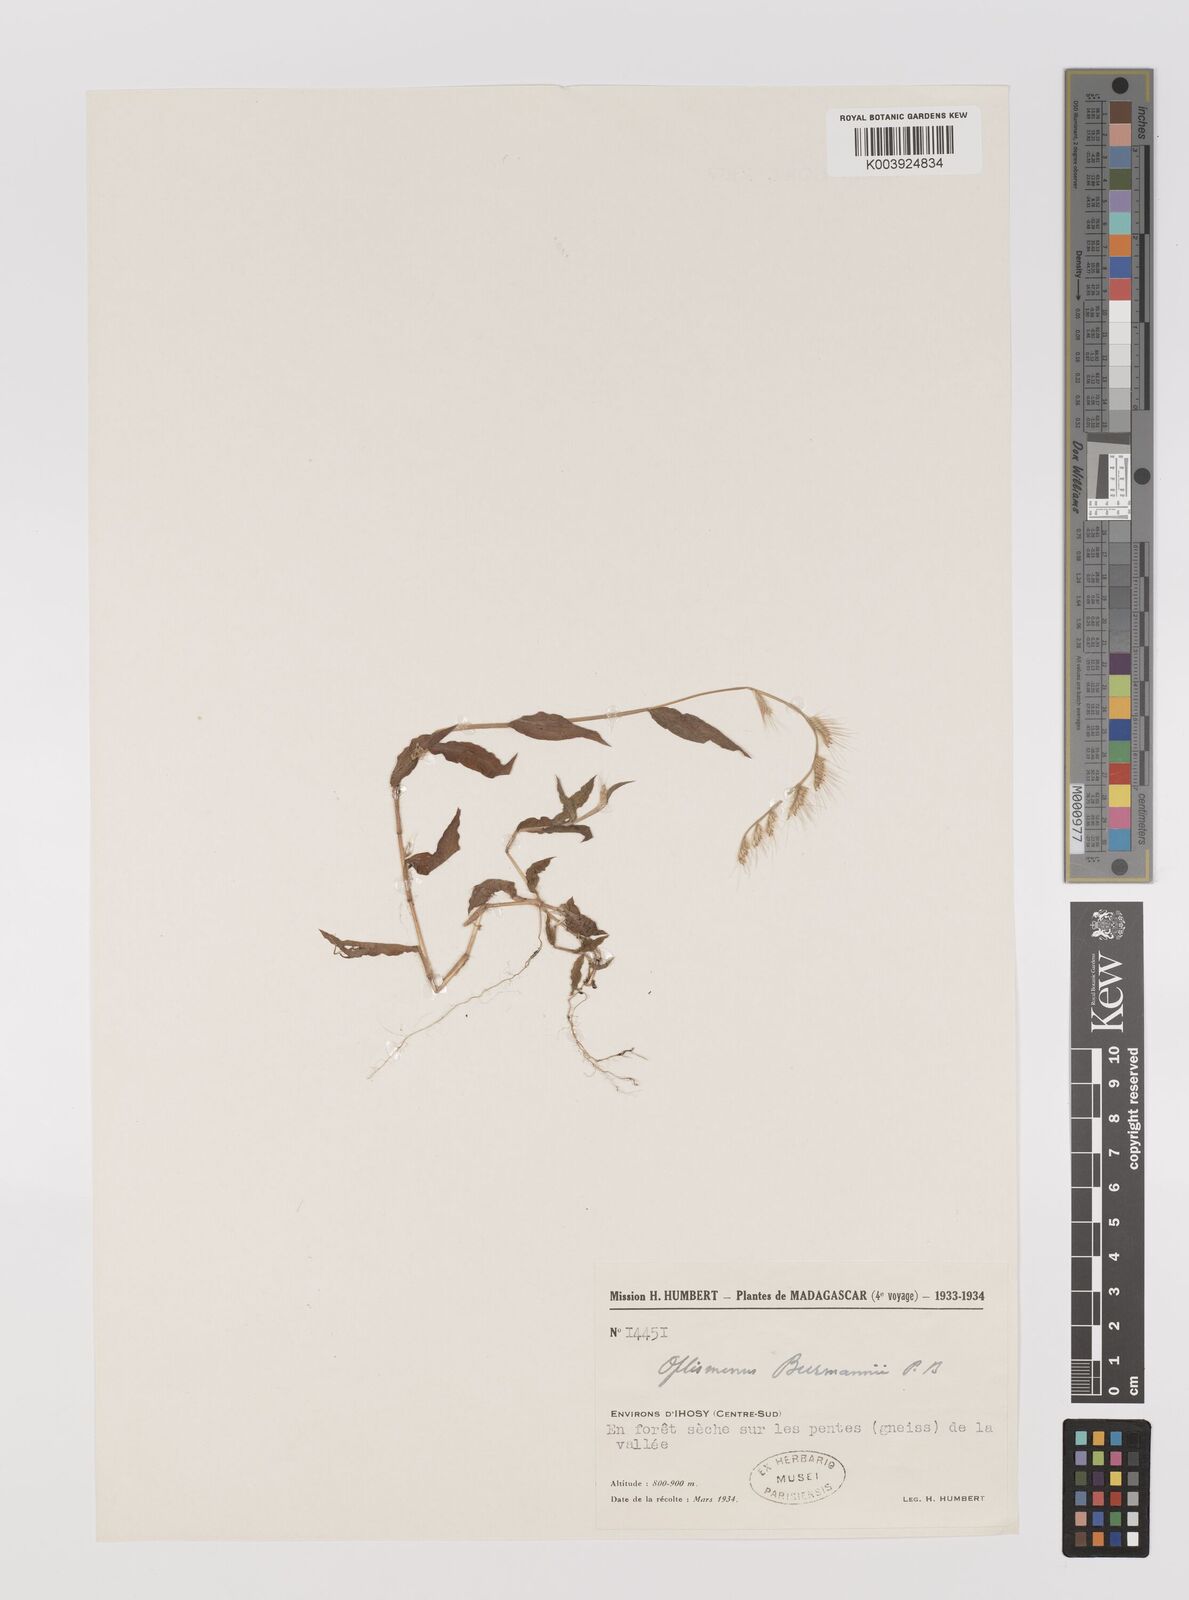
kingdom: Plantae
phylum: Tracheophyta
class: Liliopsida
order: Poales
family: Poaceae
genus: Oplismenus
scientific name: Oplismenus burmanni
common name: Burmann's basketgrass
